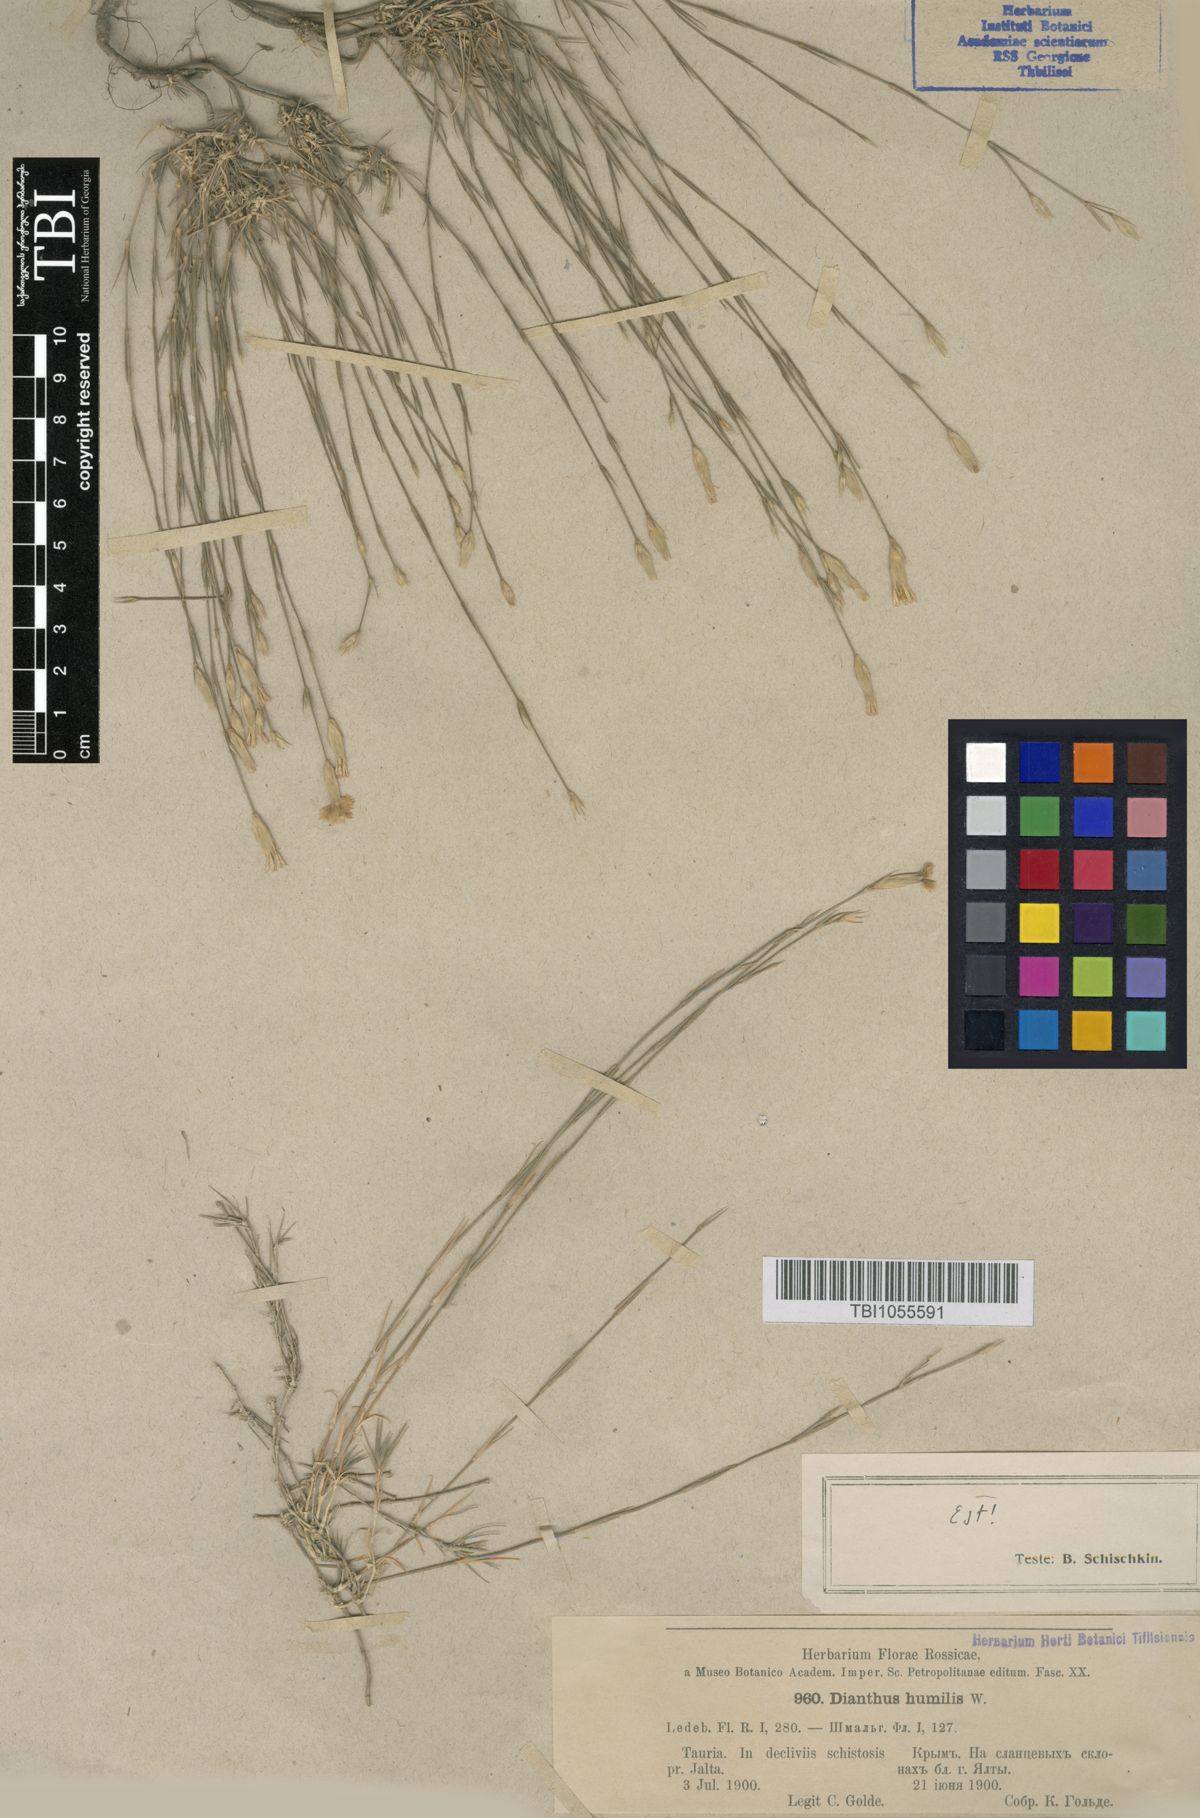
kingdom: Plantae
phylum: Tracheophyta
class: Magnoliopsida
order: Caryophyllales
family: Caryophyllaceae
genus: Dianthus
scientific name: Dianthus humilis
